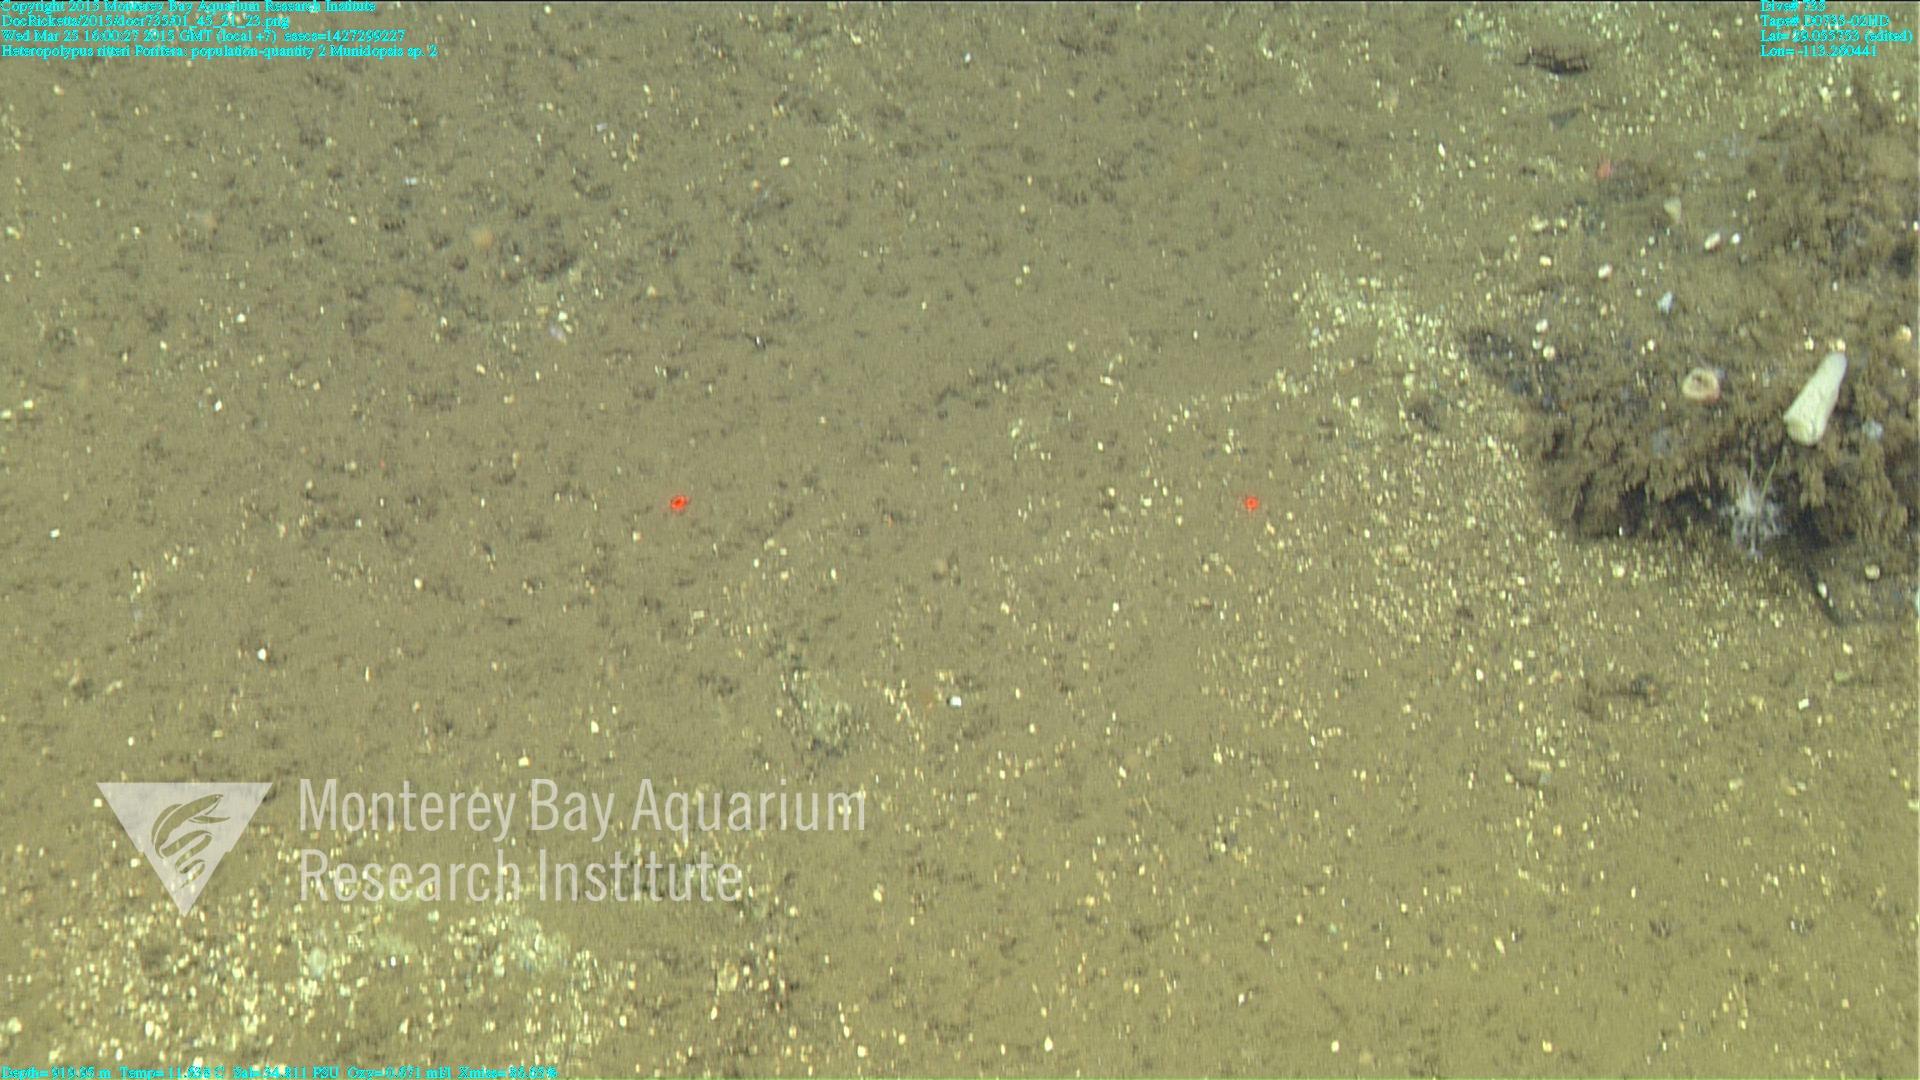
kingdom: Animalia
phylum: Cnidaria
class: Anthozoa
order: Scleralcyonacea
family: Coralliidae
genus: Heteropolypus
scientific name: Heteropolypus ritteri
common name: Ritter's soft coral
